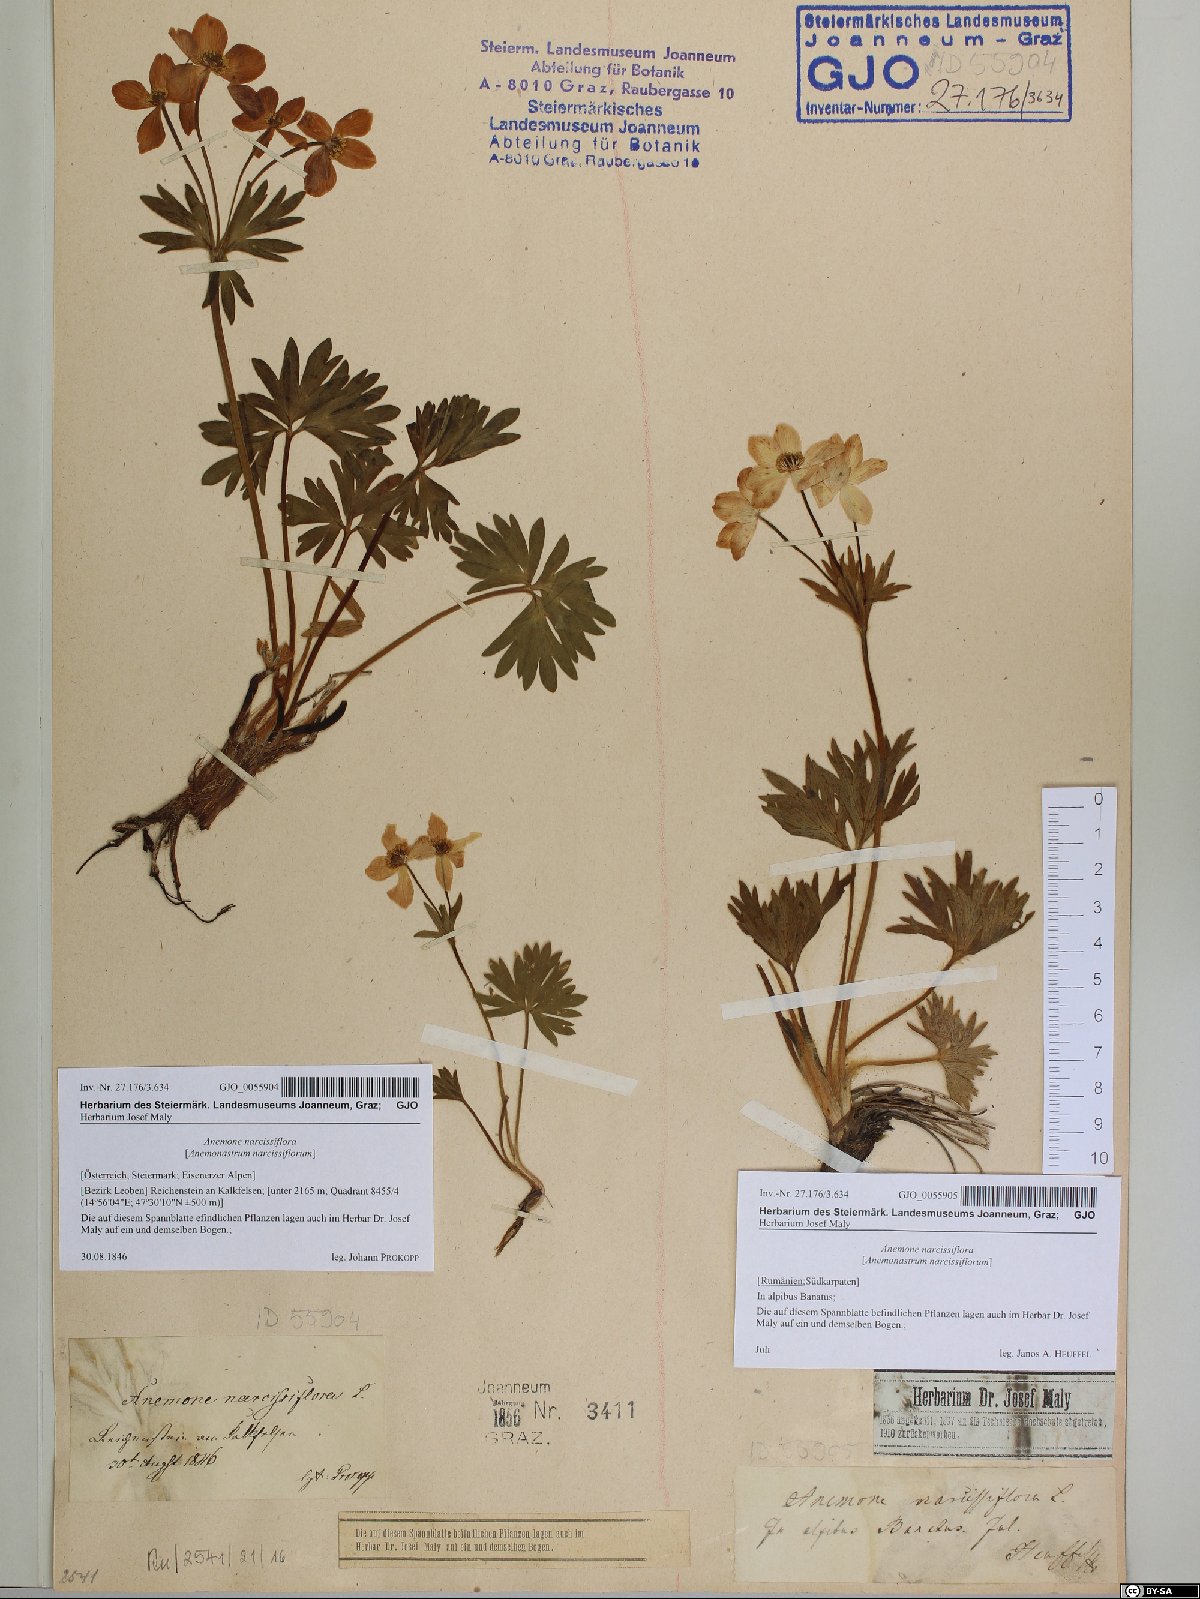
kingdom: Plantae
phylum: Tracheophyta
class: Magnoliopsida
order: Ranunculales
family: Ranunculaceae
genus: Anemonastrum
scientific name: Anemonastrum narcissiflorum
